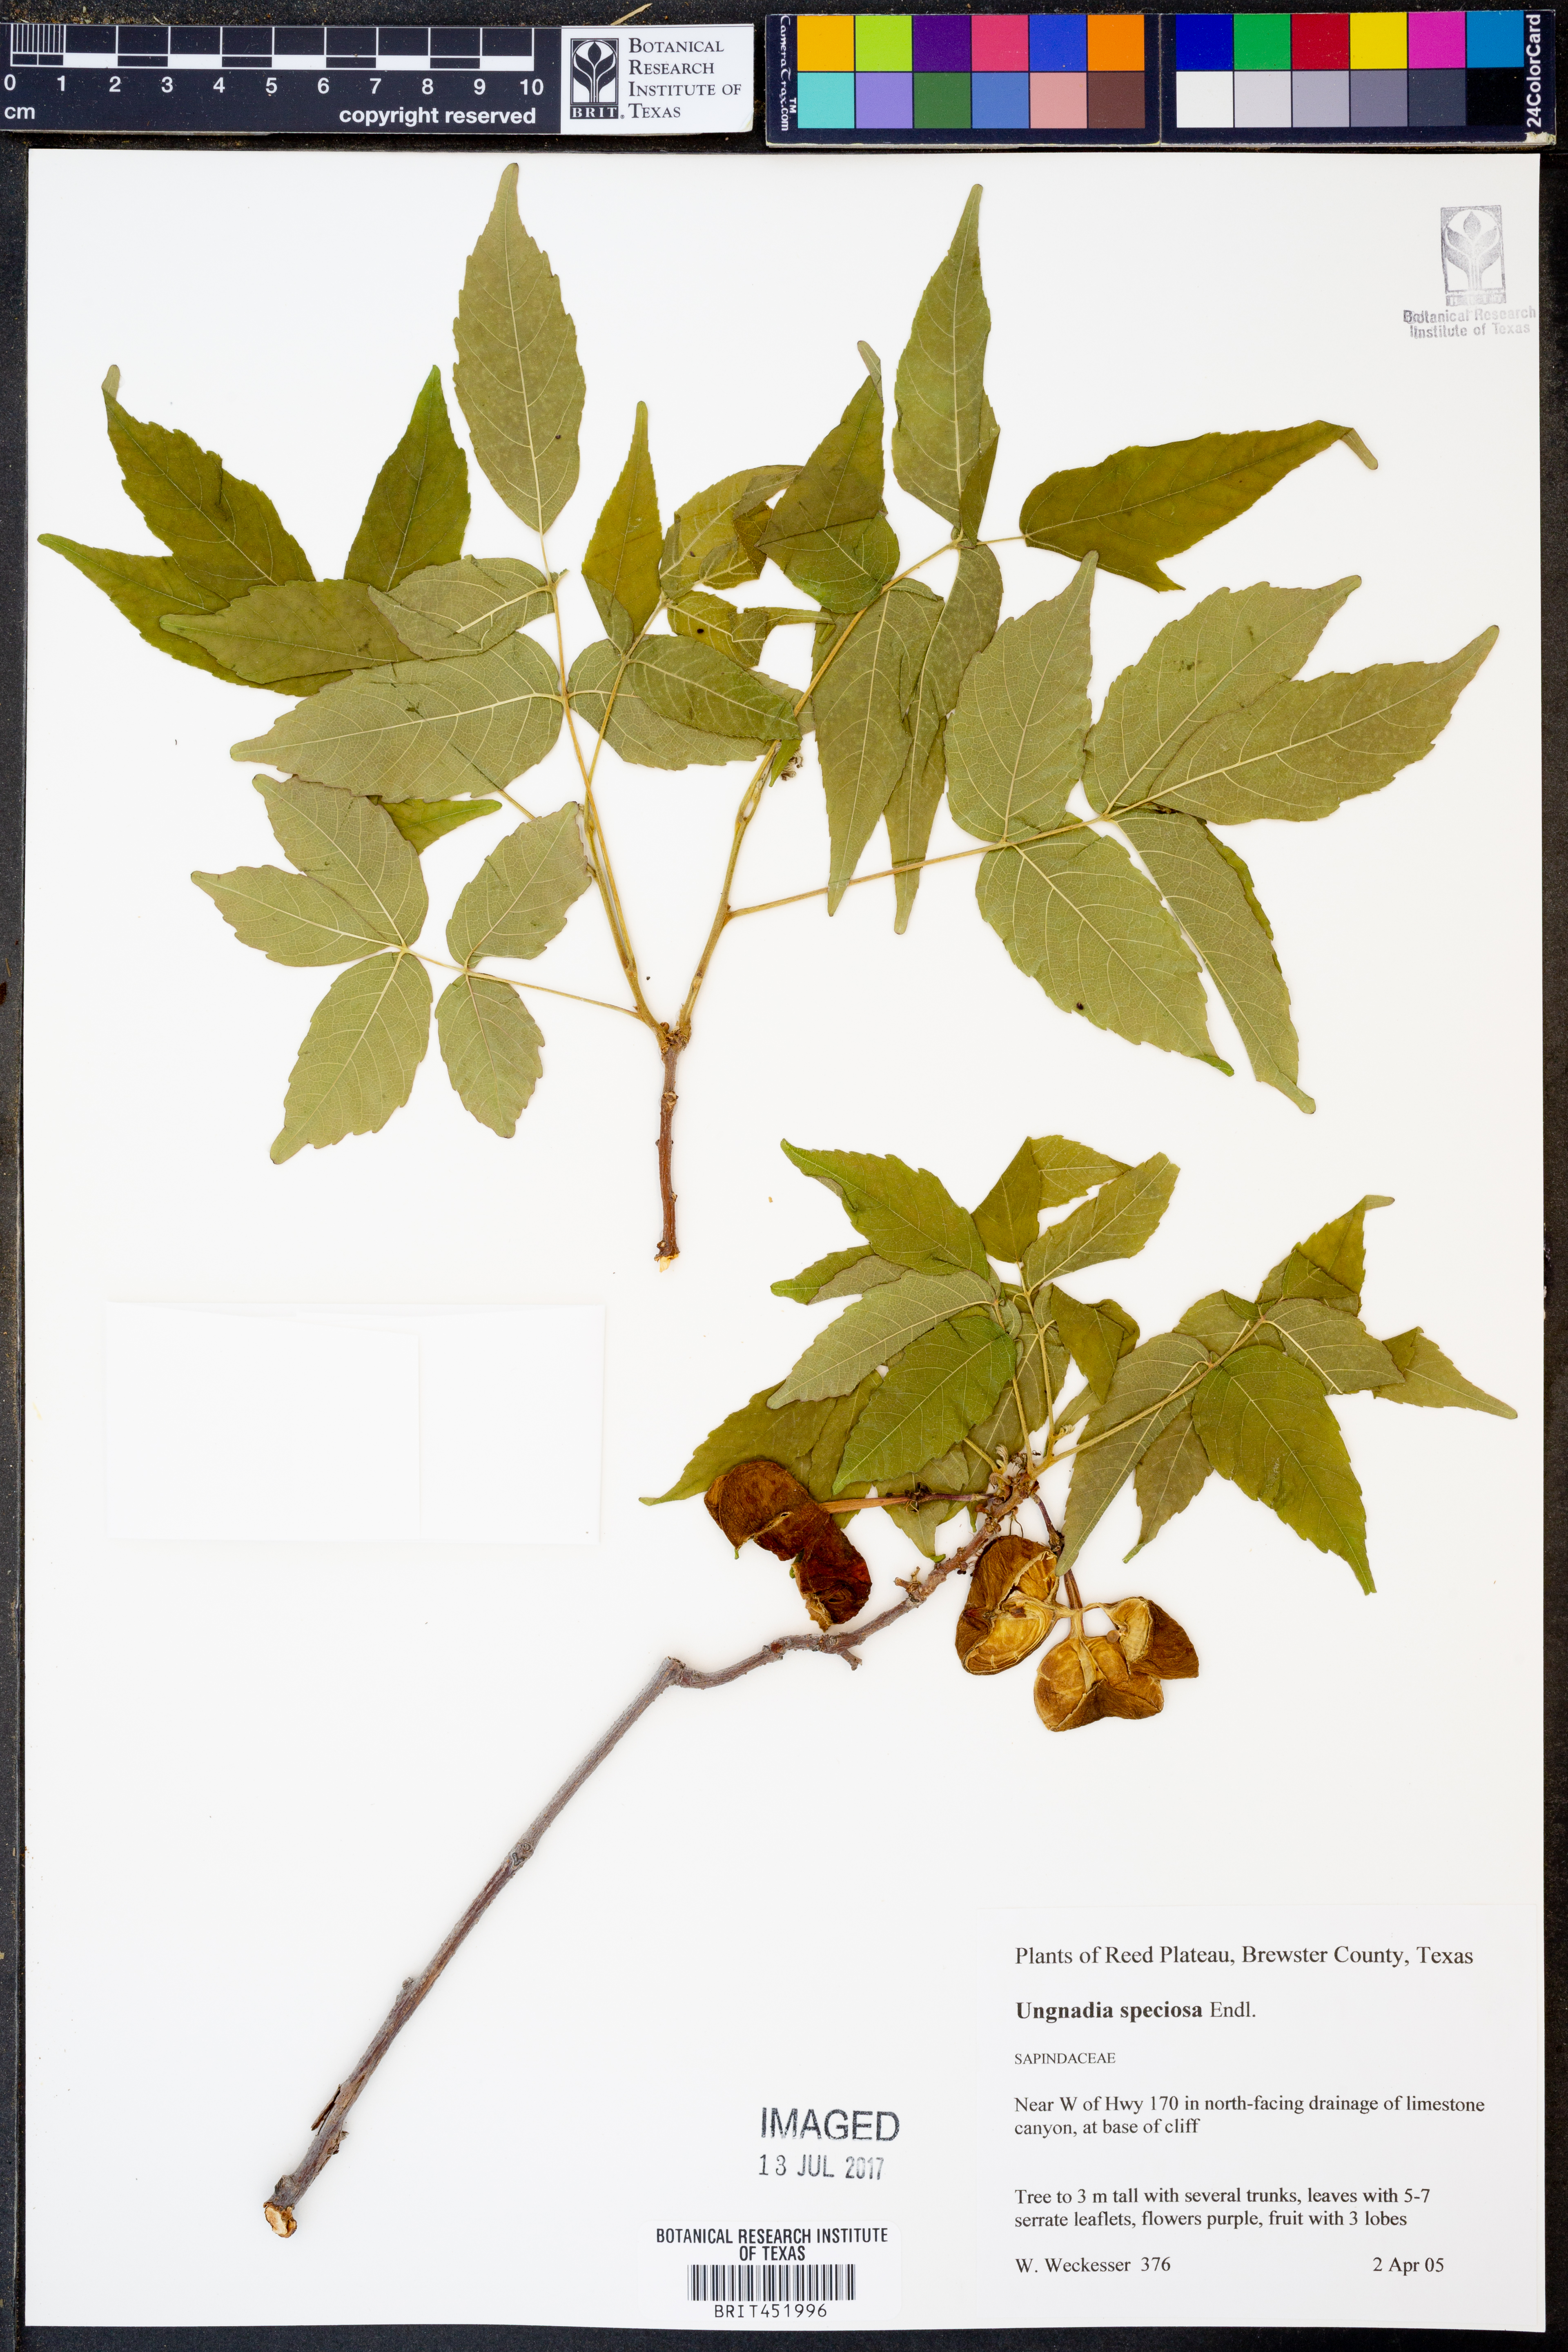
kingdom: Plantae
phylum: Tracheophyta
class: Magnoliopsida
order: Sapindales
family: Sapindaceae
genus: Ungnadia
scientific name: Ungnadia speciosa
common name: Texas-buckeye
